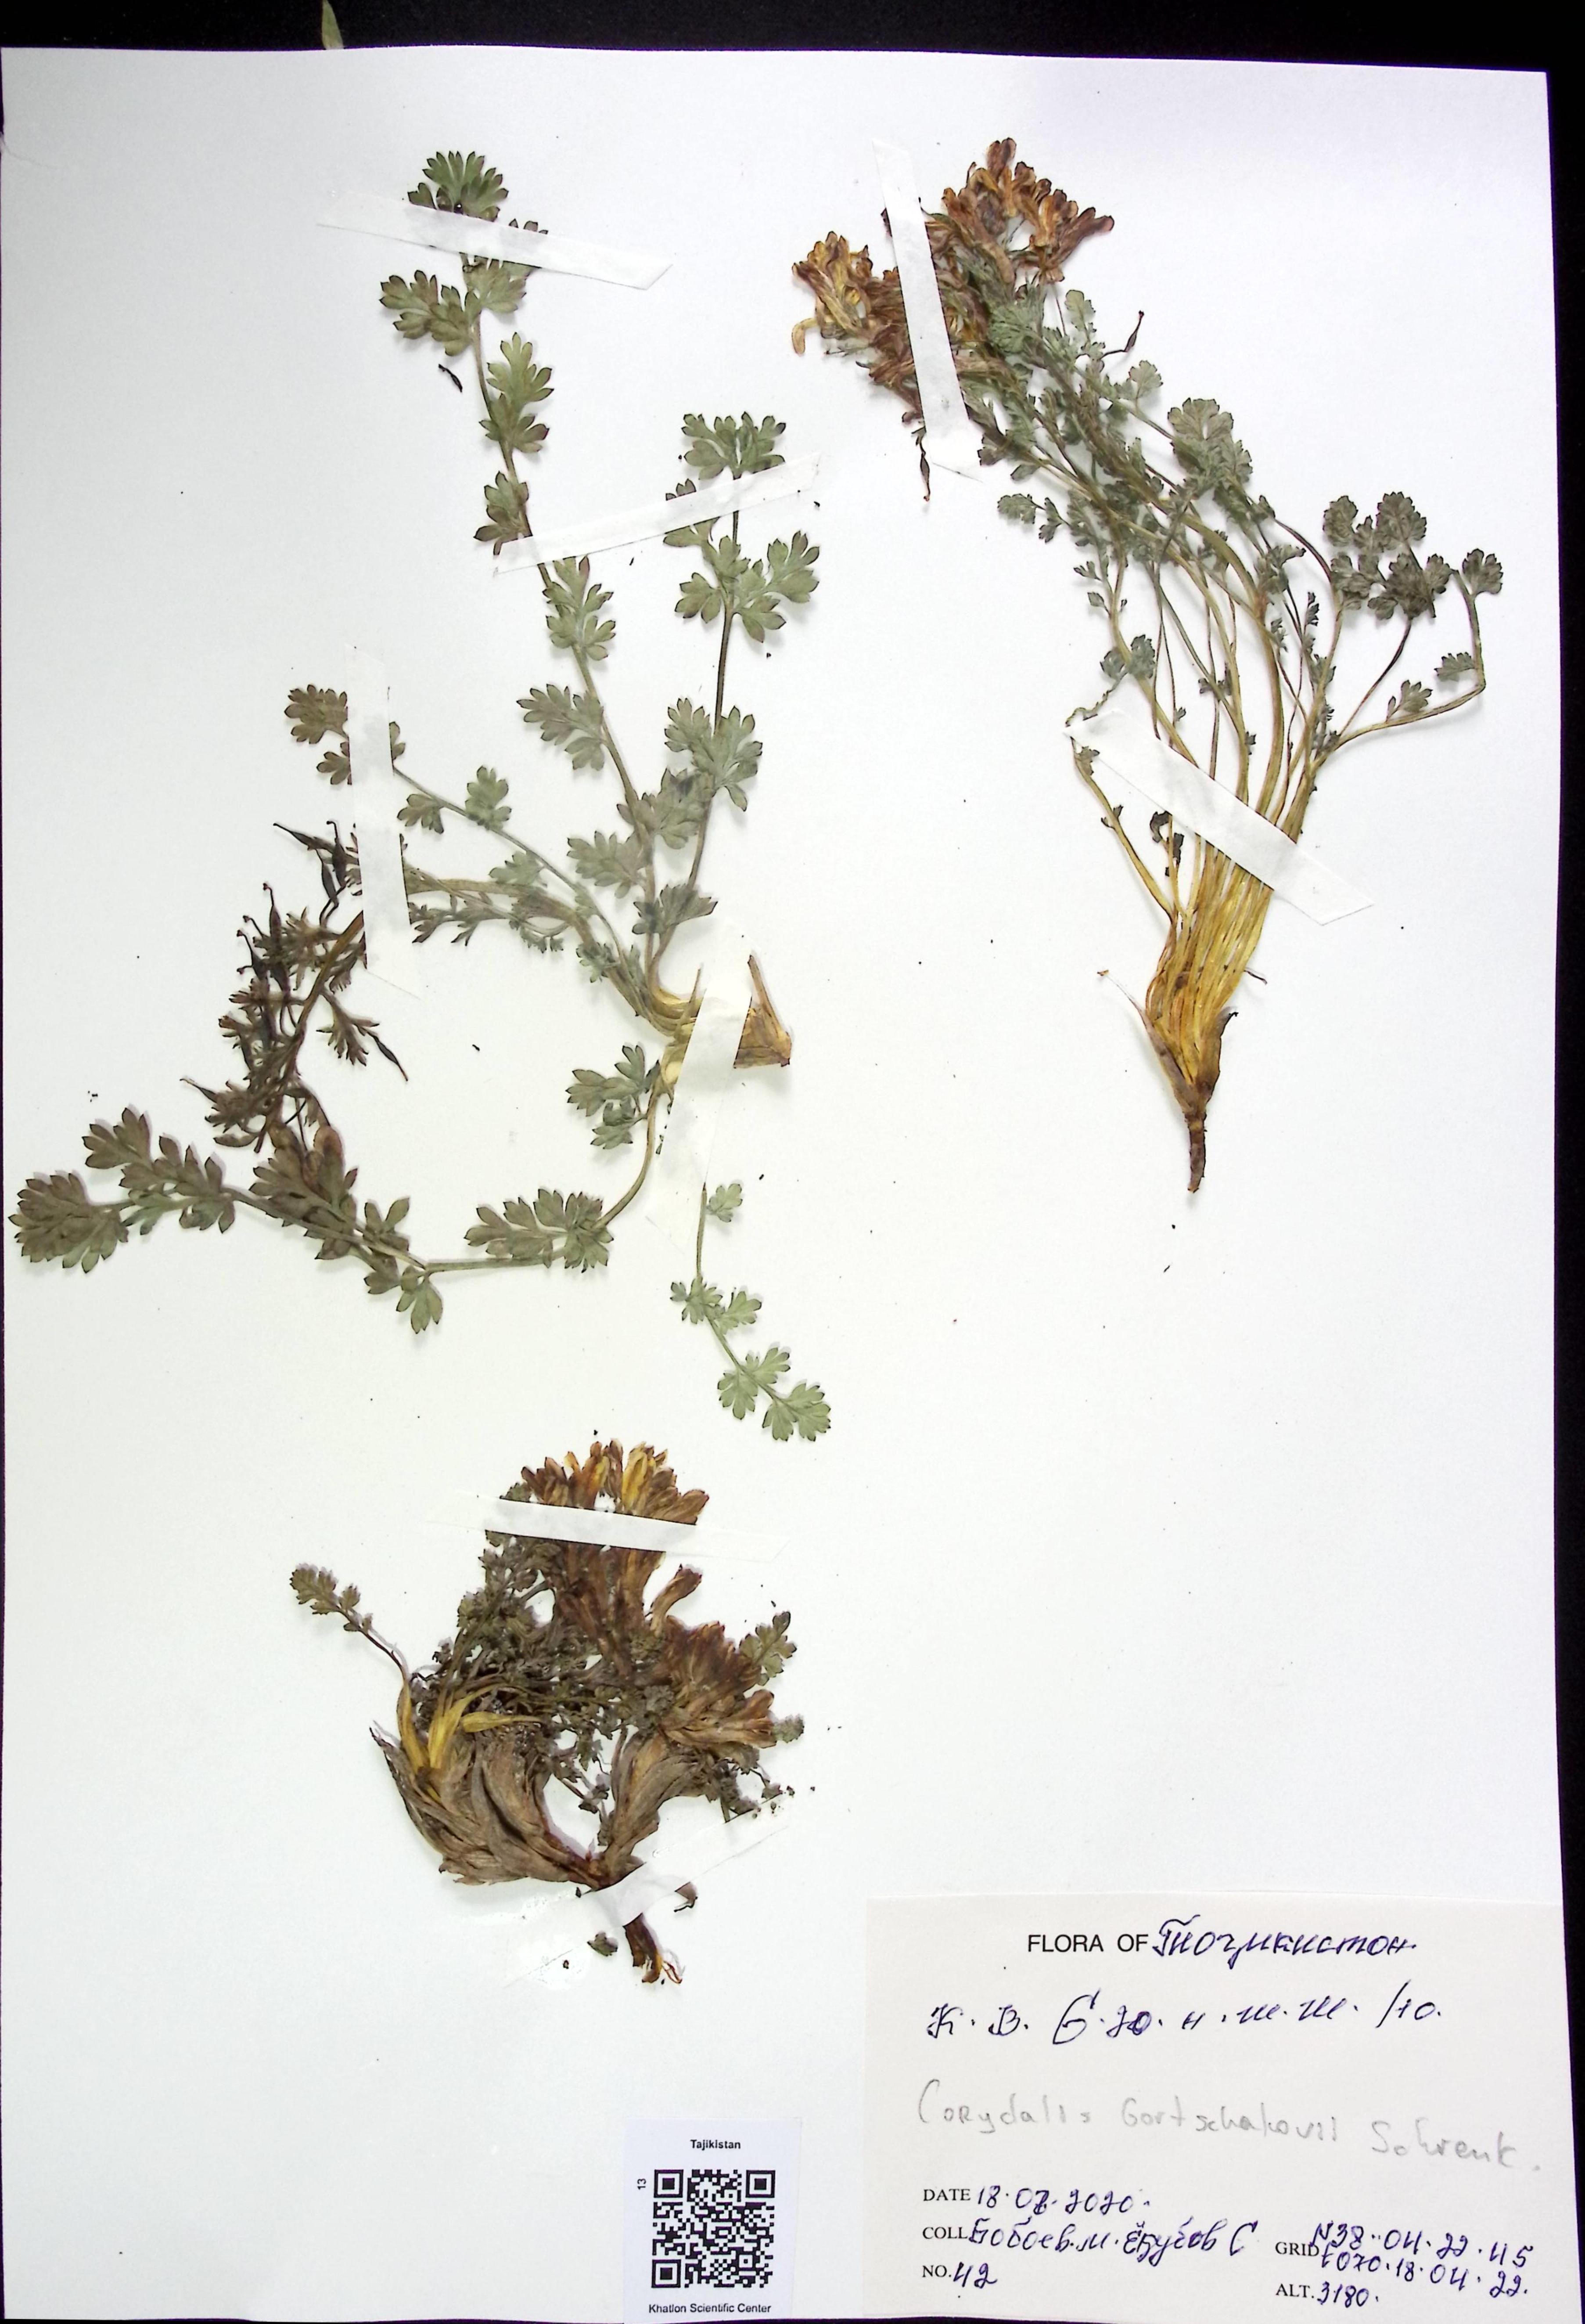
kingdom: Plantae
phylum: Tracheophyta
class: Magnoliopsida
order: Ranunculales
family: Papaveraceae
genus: Corydalis
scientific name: Corydalis
